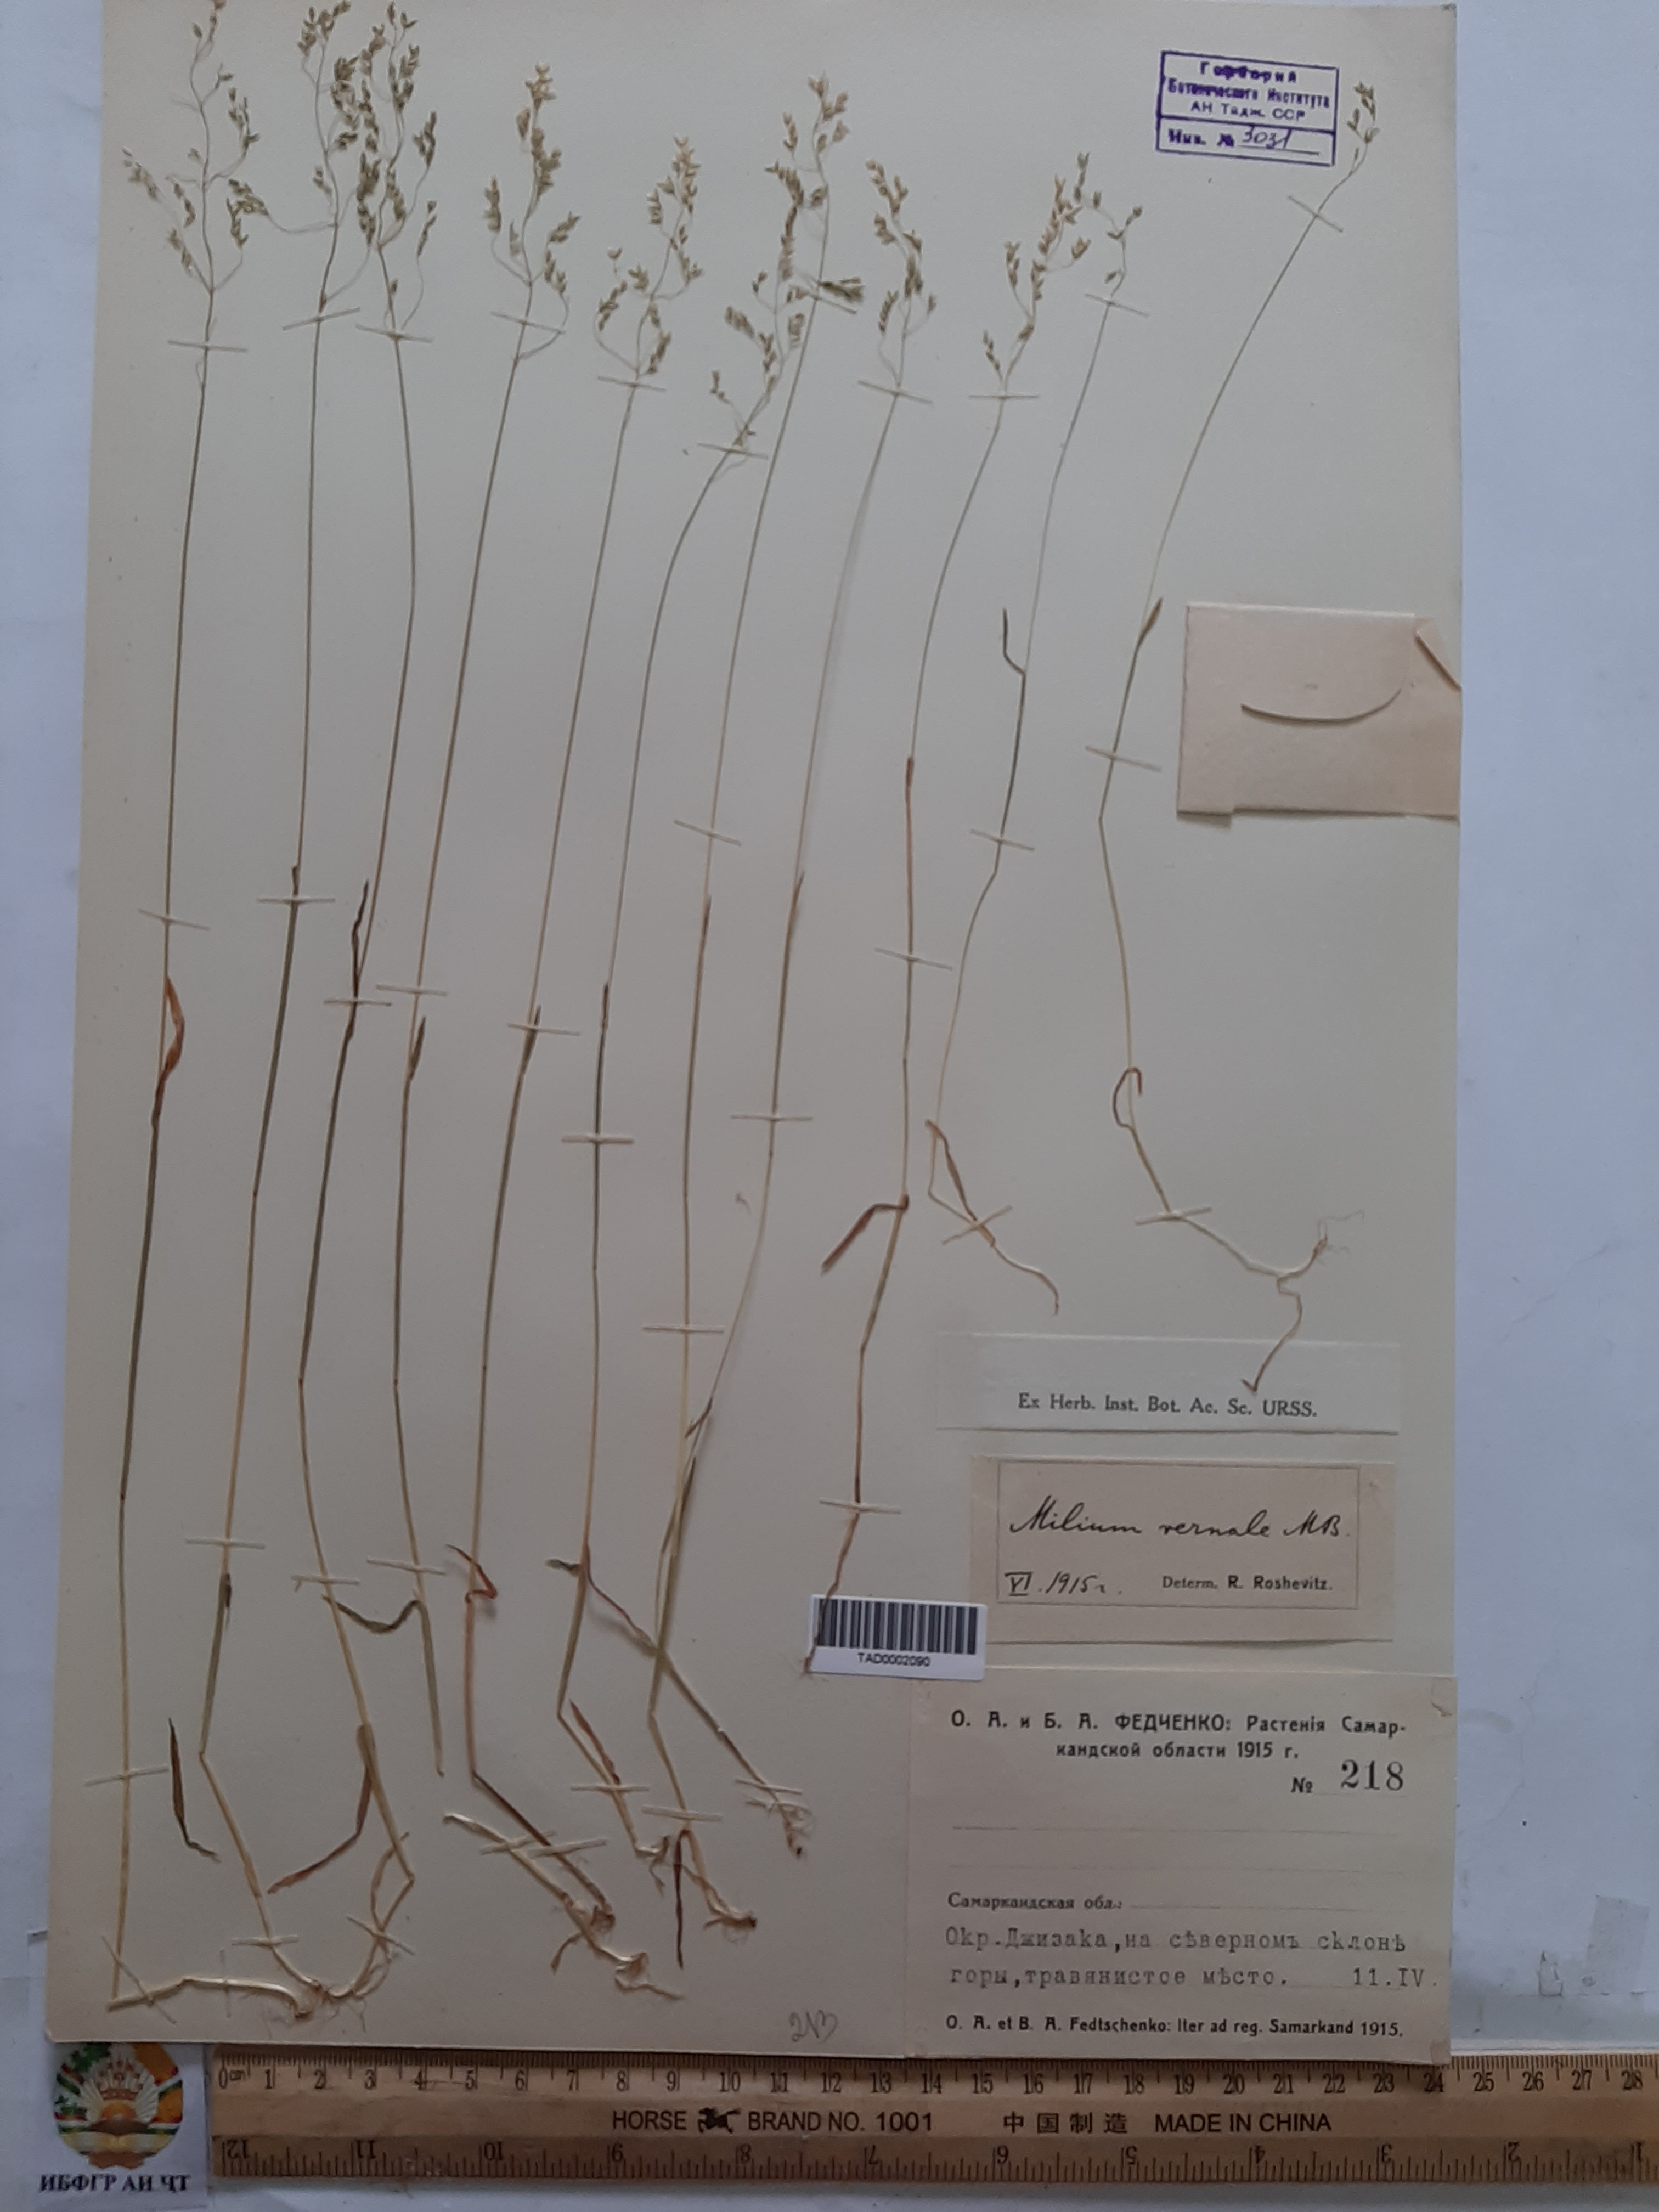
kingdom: Plantae
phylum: Tracheophyta
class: Liliopsida
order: Poales
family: Poaceae
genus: Milium
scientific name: Milium vernale
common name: Early millet
